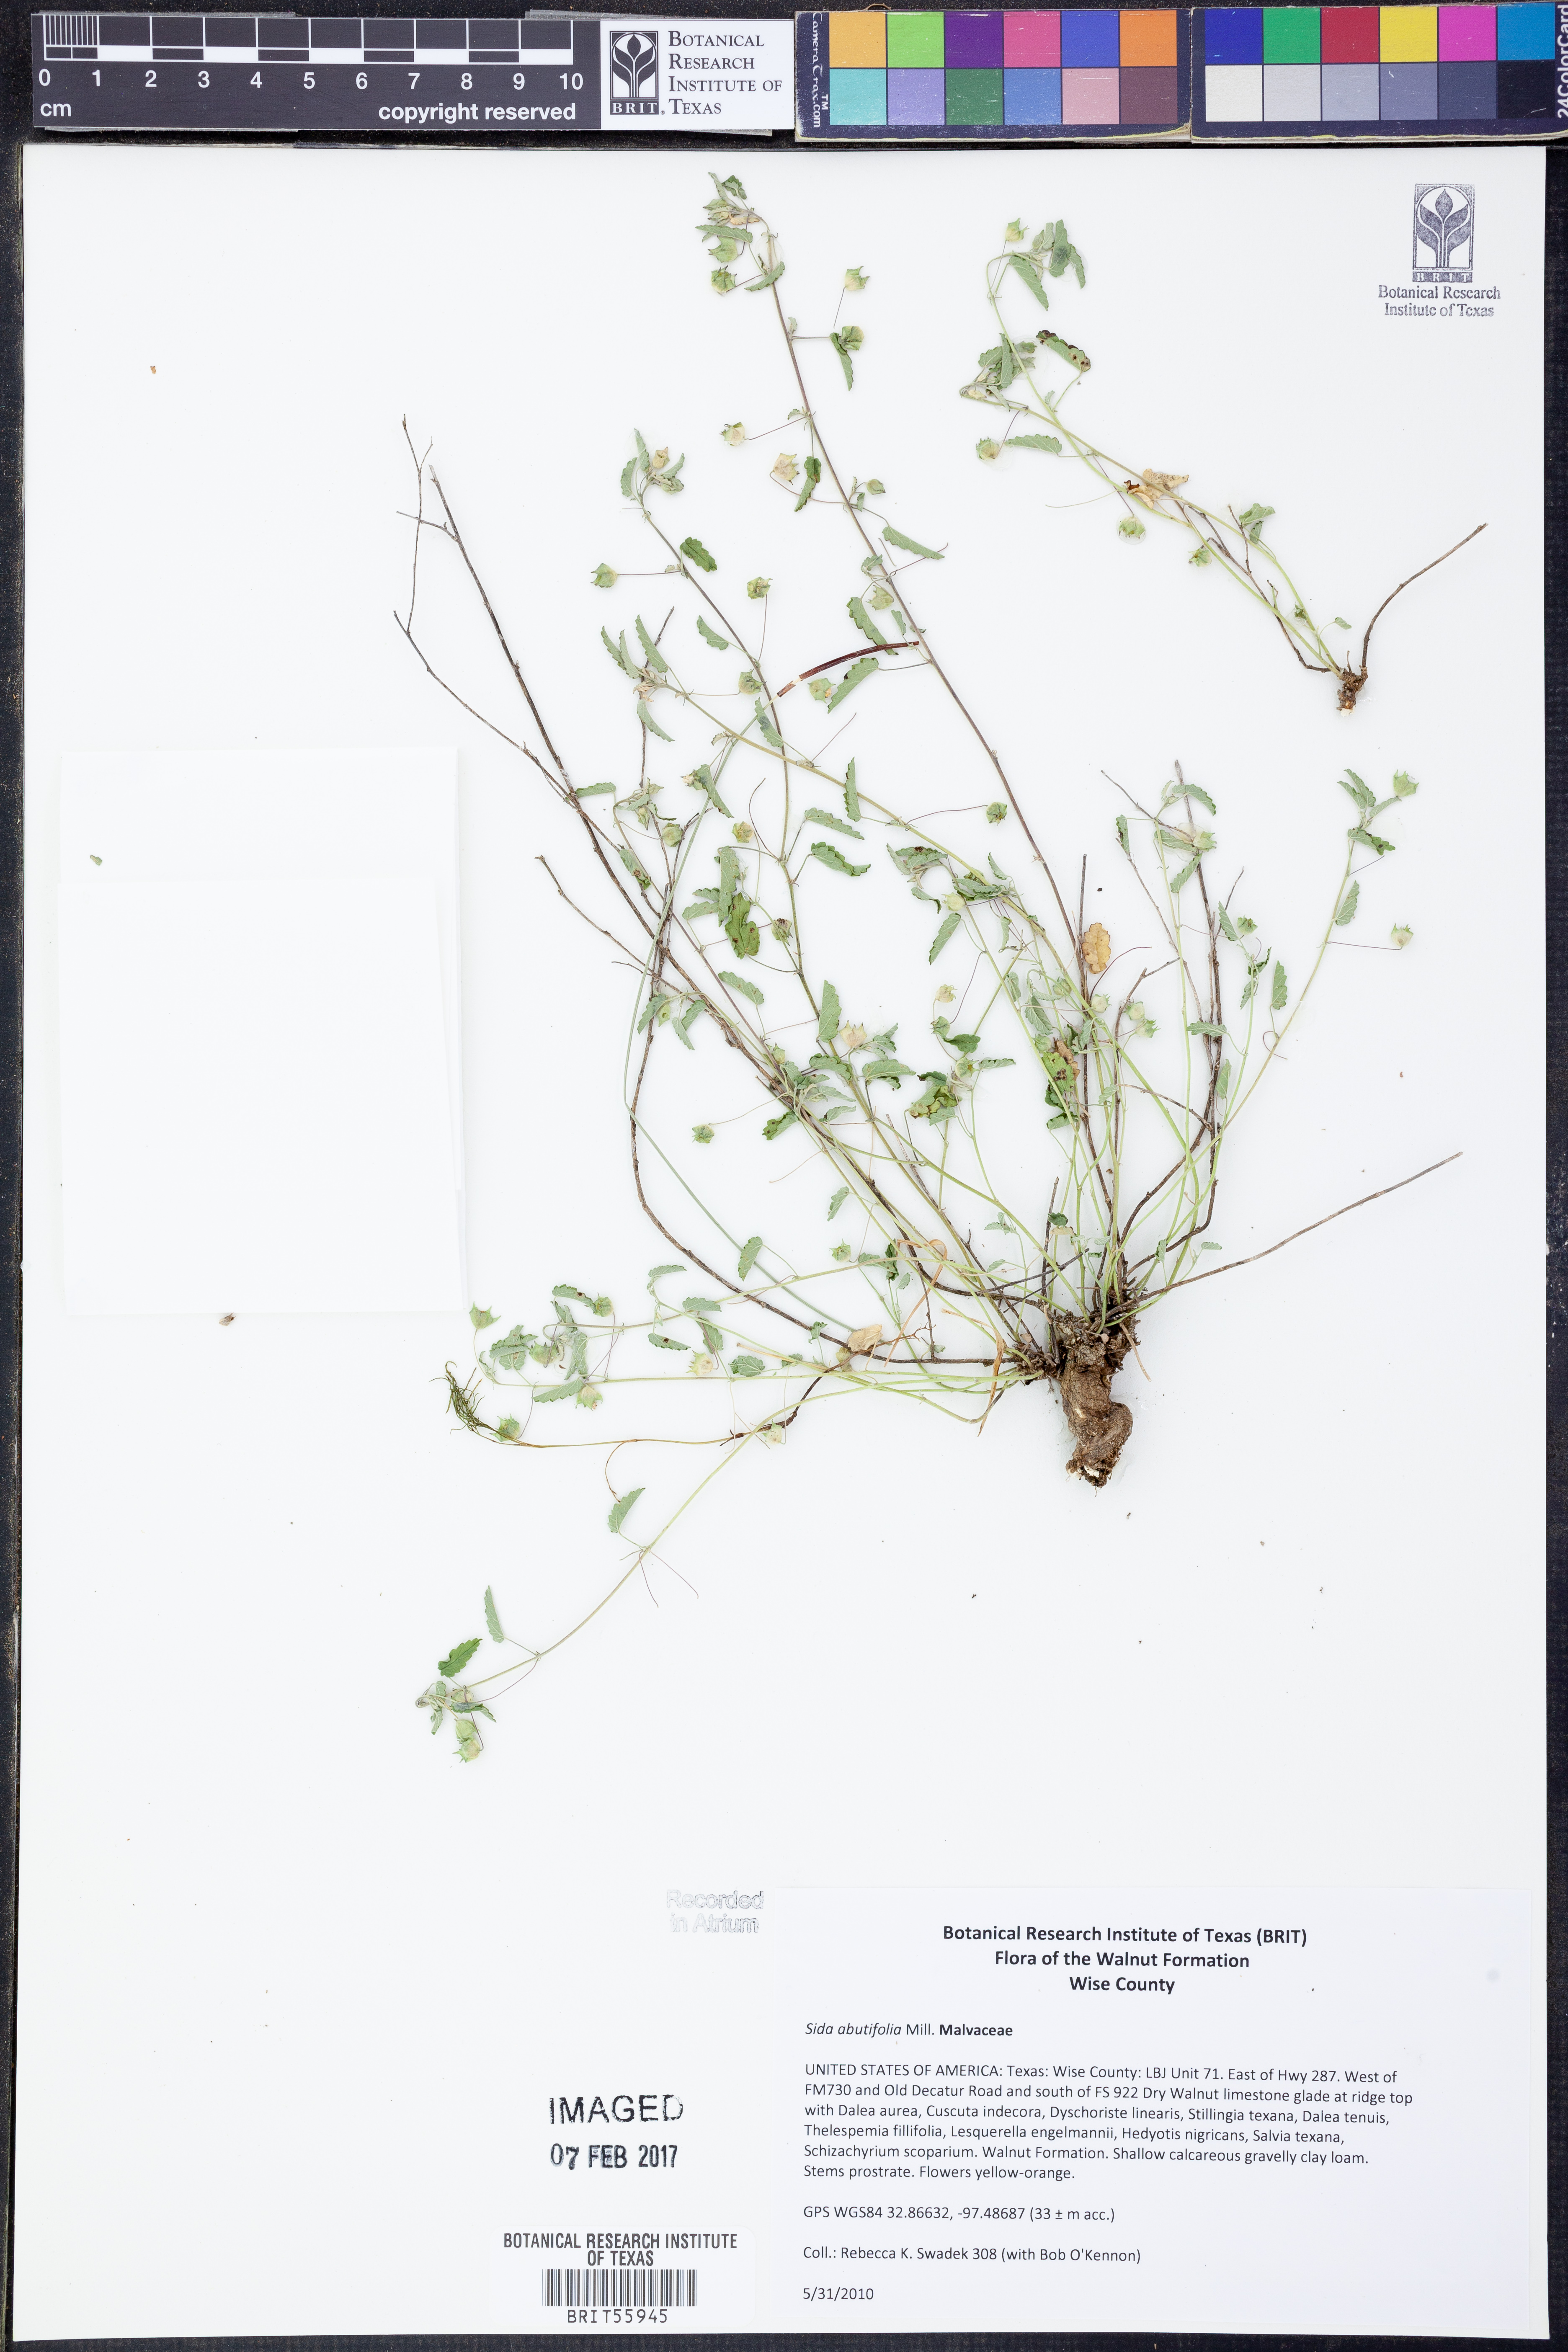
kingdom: Plantae
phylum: Tracheophyta
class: Magnoliopsida
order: Malvales
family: Malvaceae
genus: Sida
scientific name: Sida abutifolia
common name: Spreading fantails
